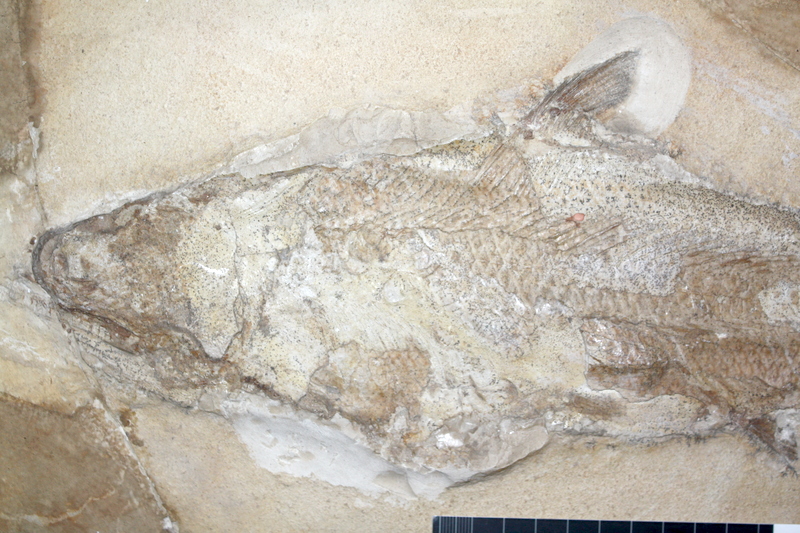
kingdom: Animalia
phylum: Chordata
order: Amiiformes
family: Caturidae
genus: Caturus
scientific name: Caturus furcatus
